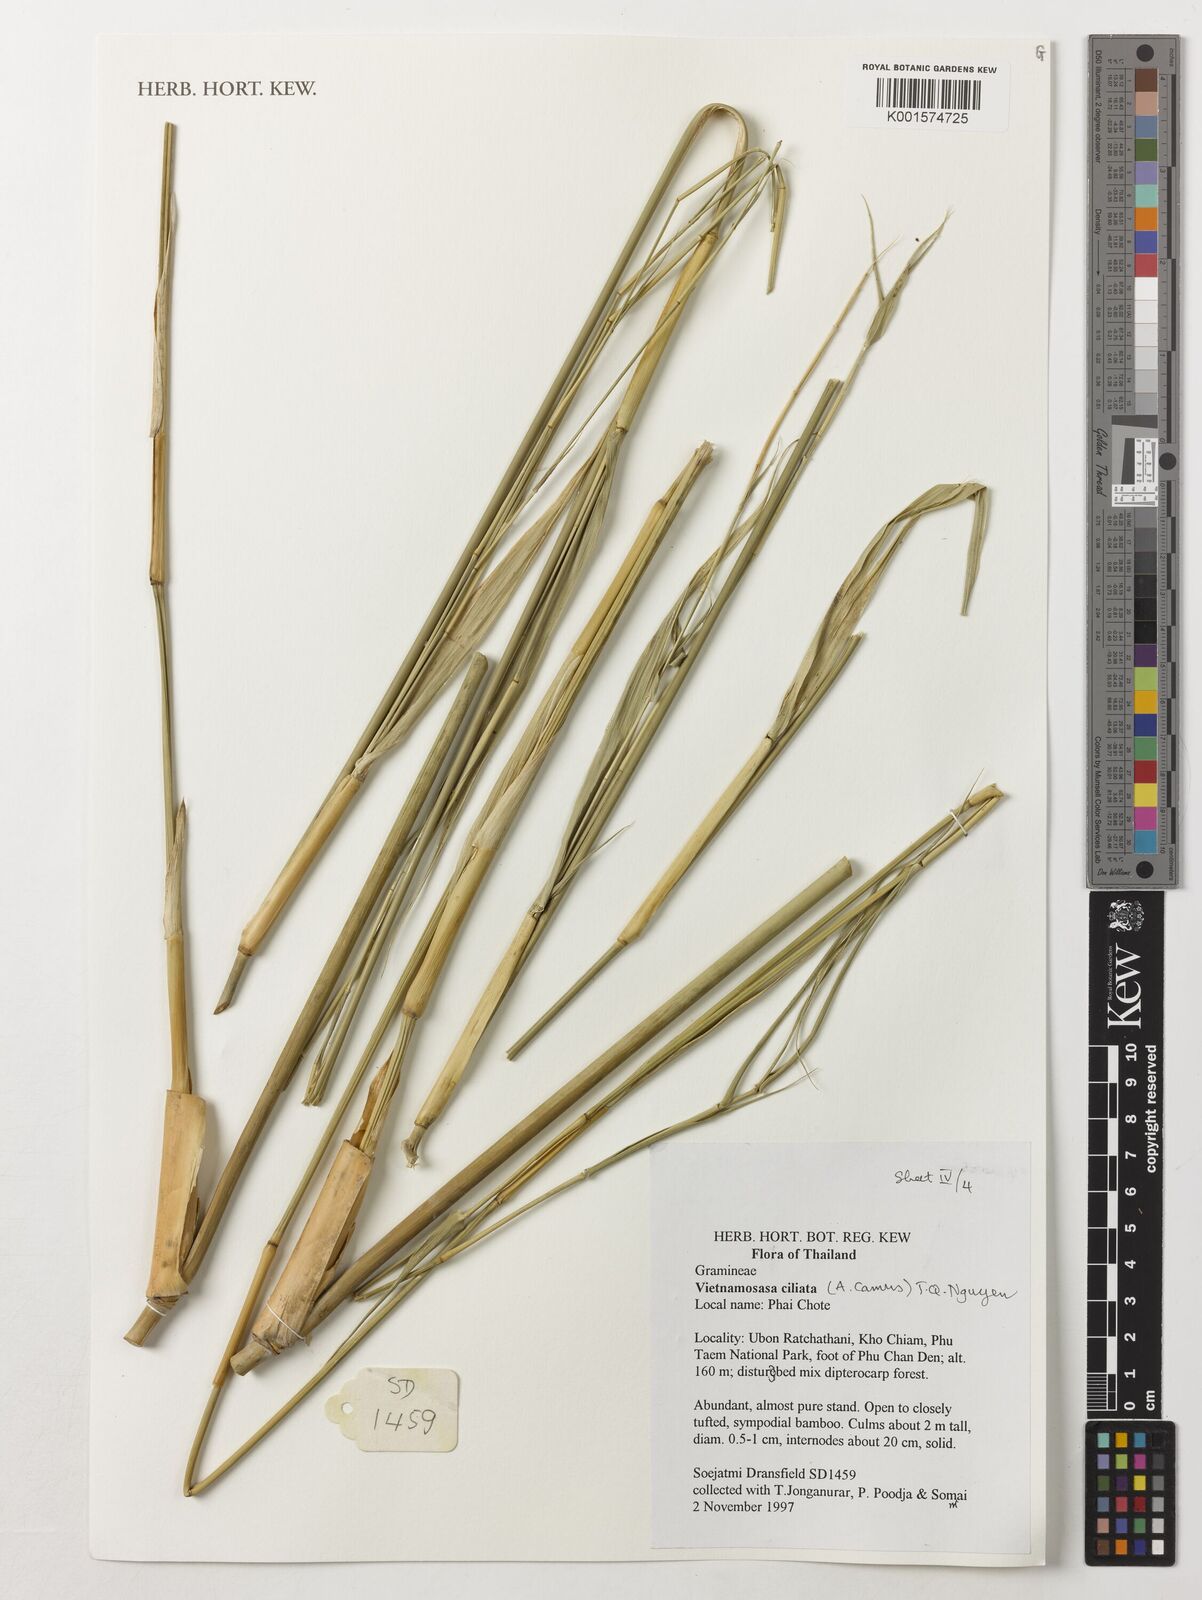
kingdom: Plantae
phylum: Tracheophyta
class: Liliopsida
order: Poales
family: Poaceae
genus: Vietnamosasa
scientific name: Vietnamosasa ciliata
